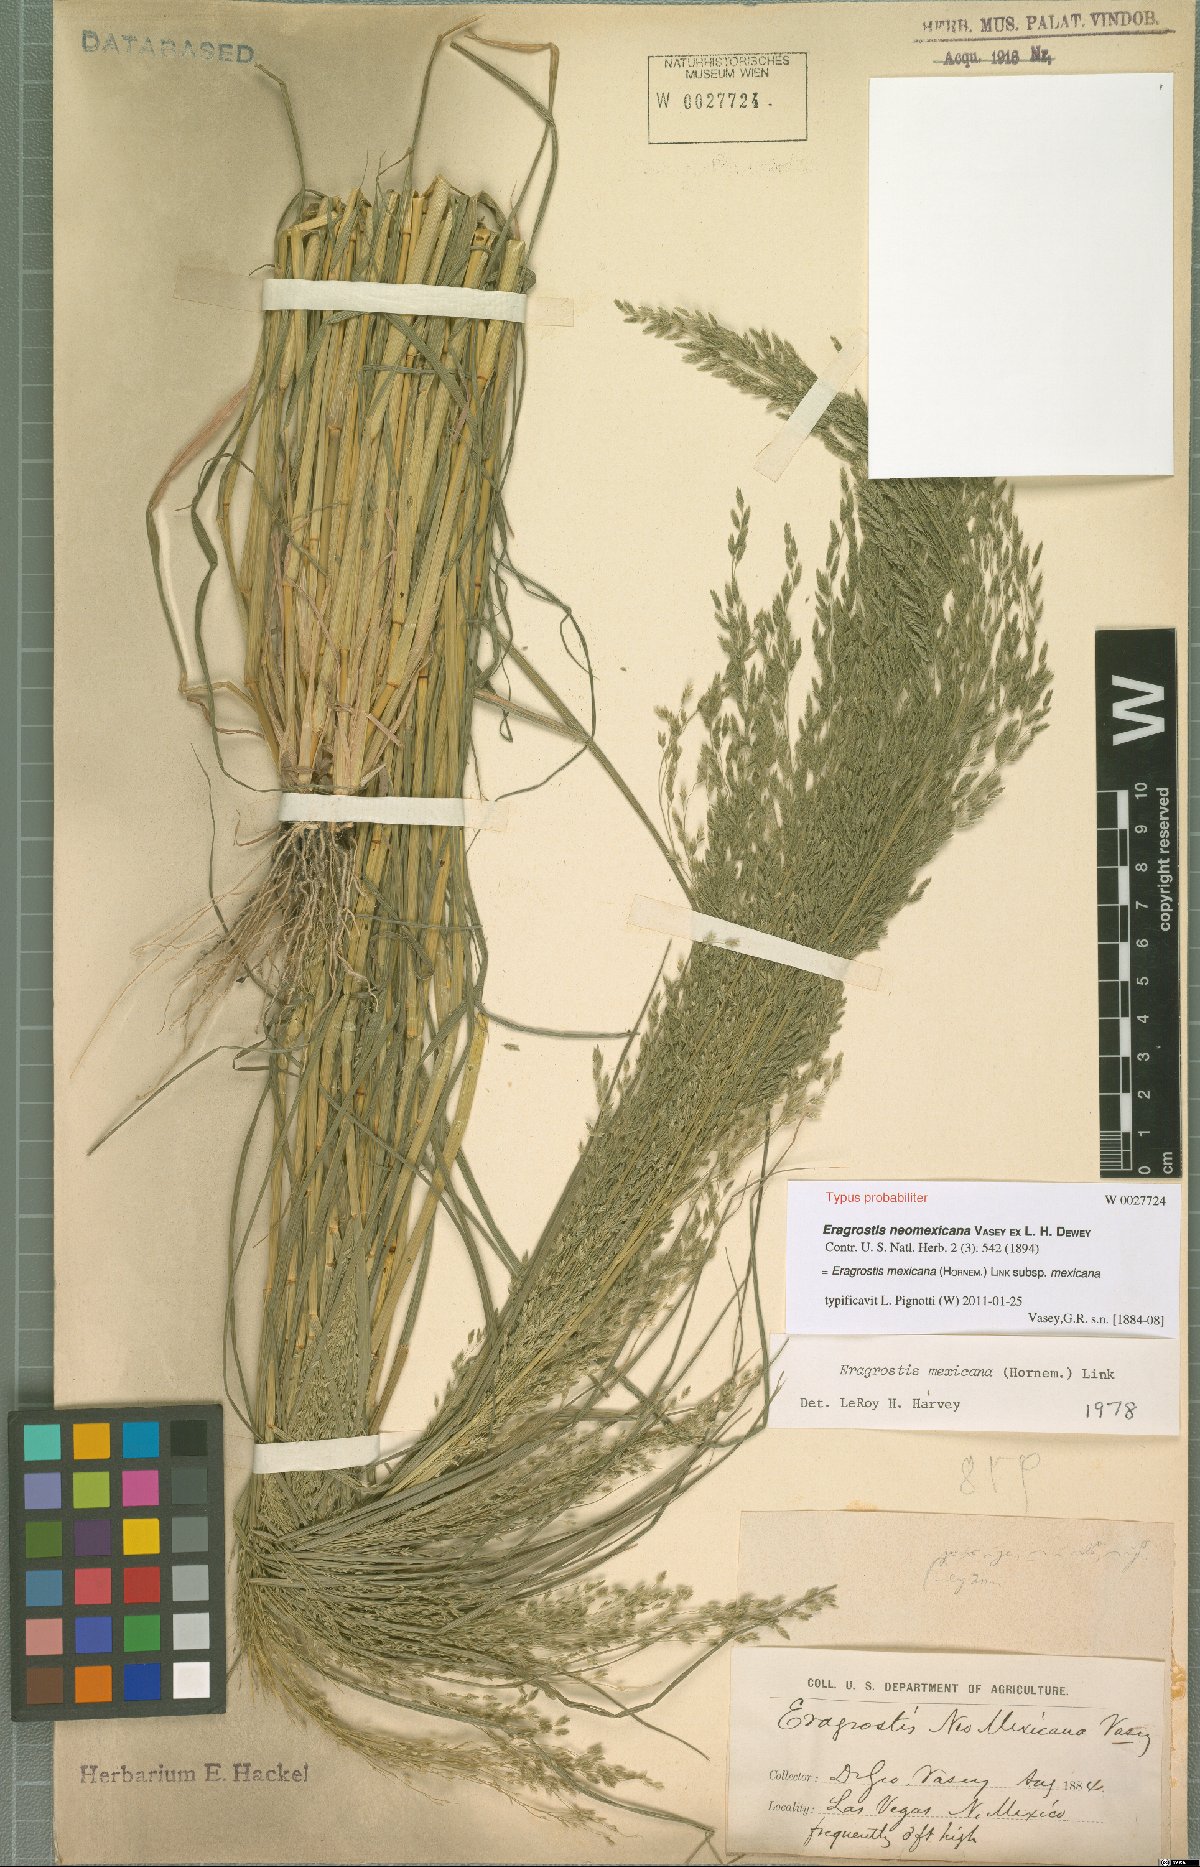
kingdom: Plantae
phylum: Tracheophyta
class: Liliopsida
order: Poales
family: Poaceae
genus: Eragrostis
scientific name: Eragrostis mexicana
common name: Mexican love grass
